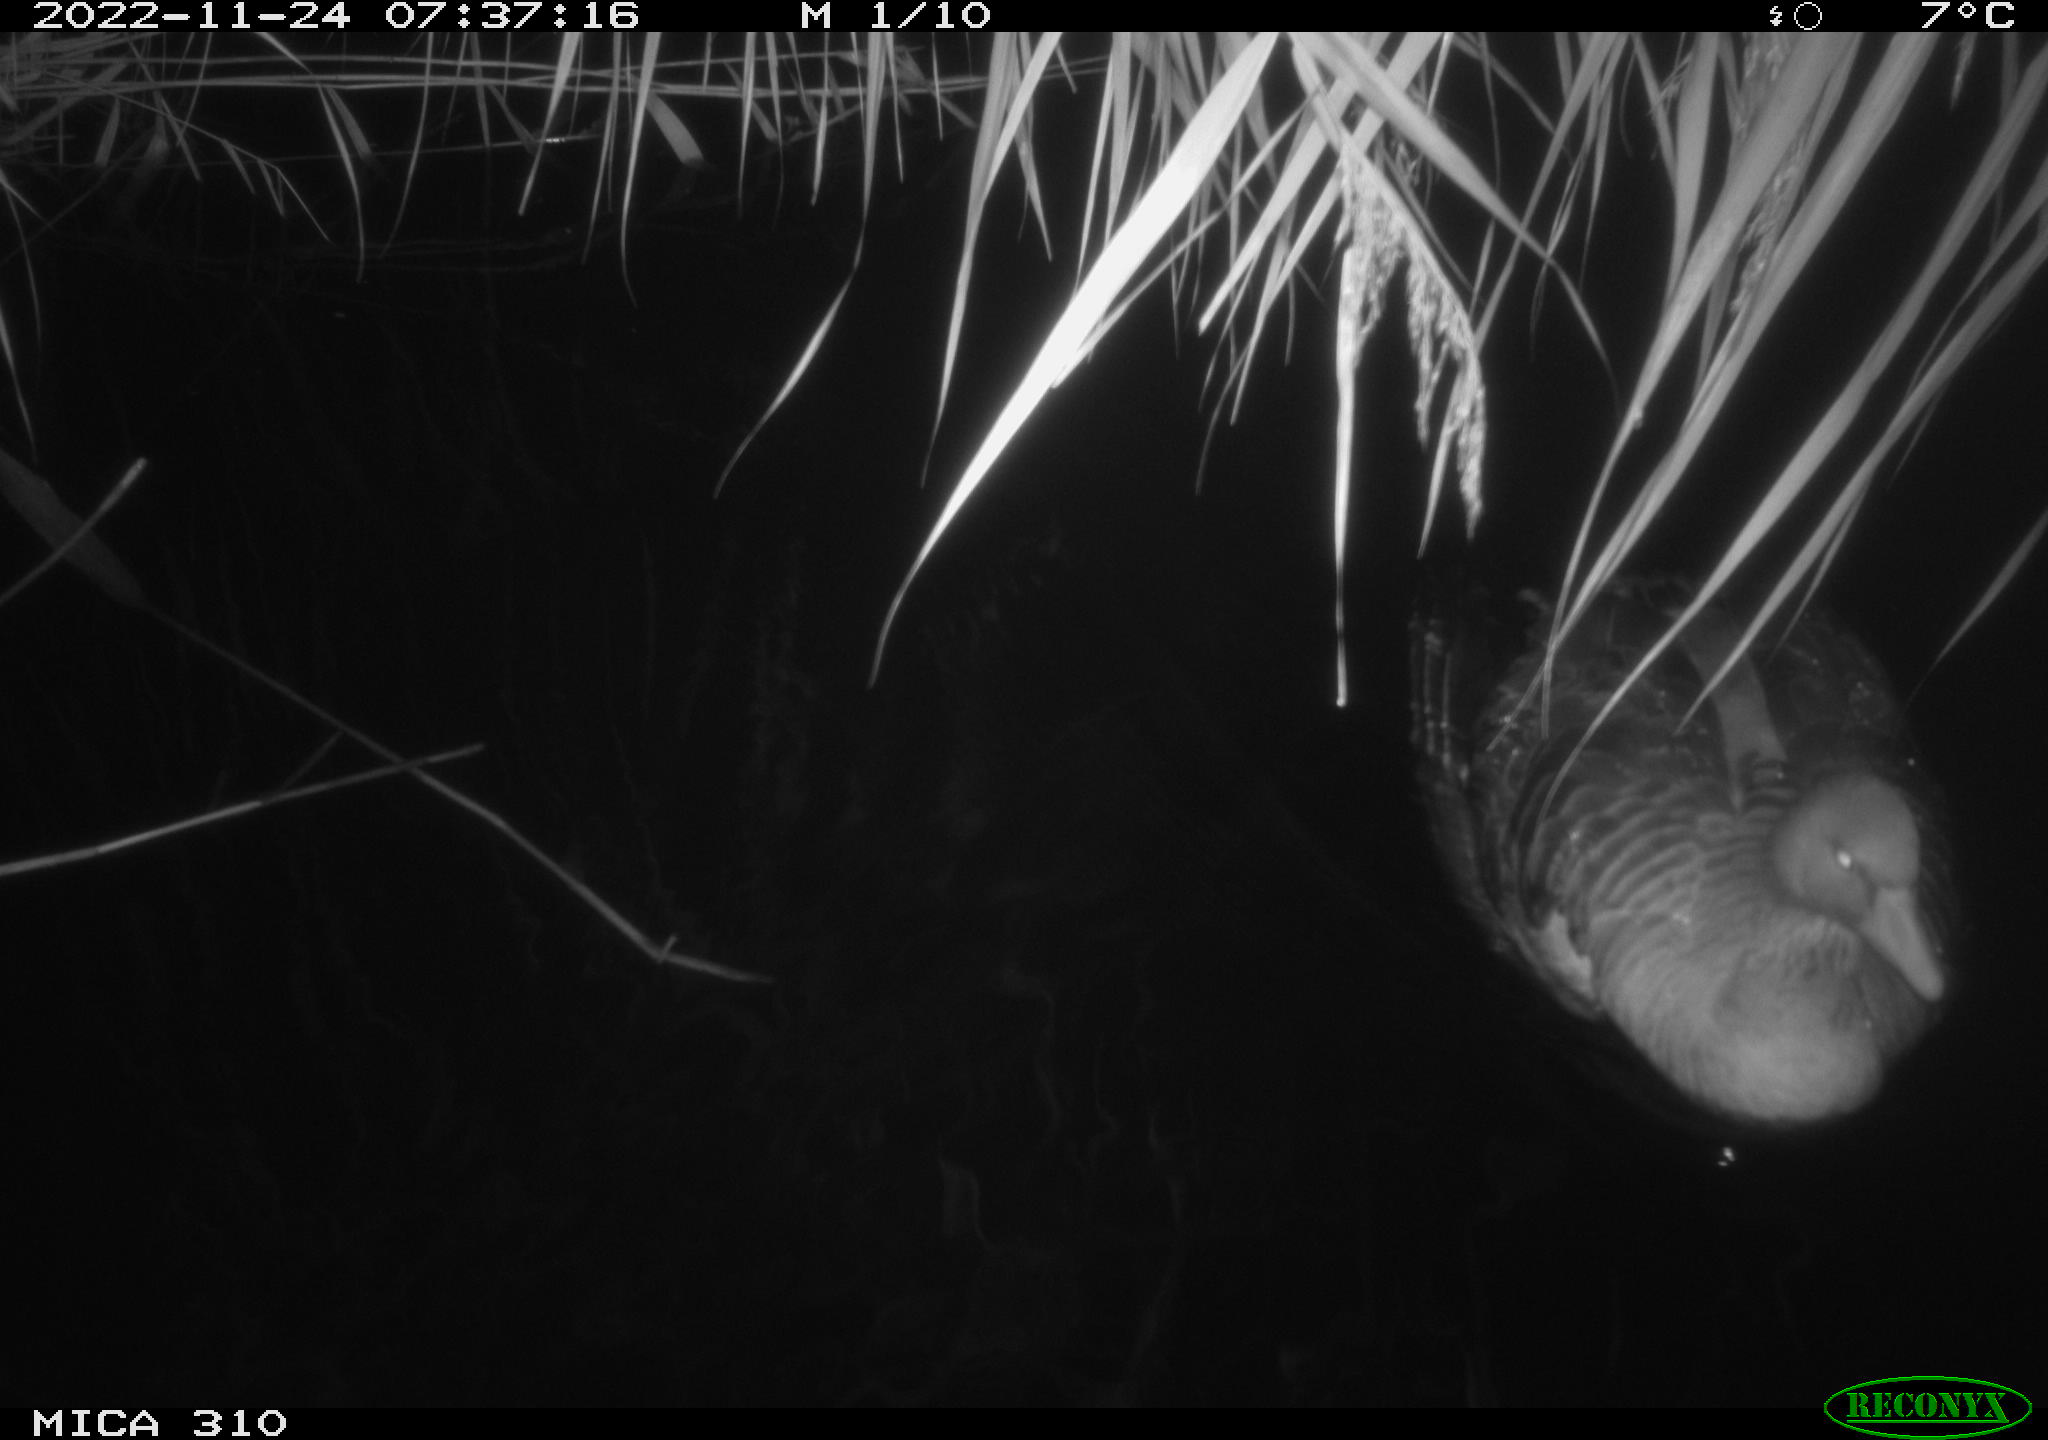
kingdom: Animalia
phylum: Chordata
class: Aves
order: Anseriformes
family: Anatidae
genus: Anas
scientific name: Anas
